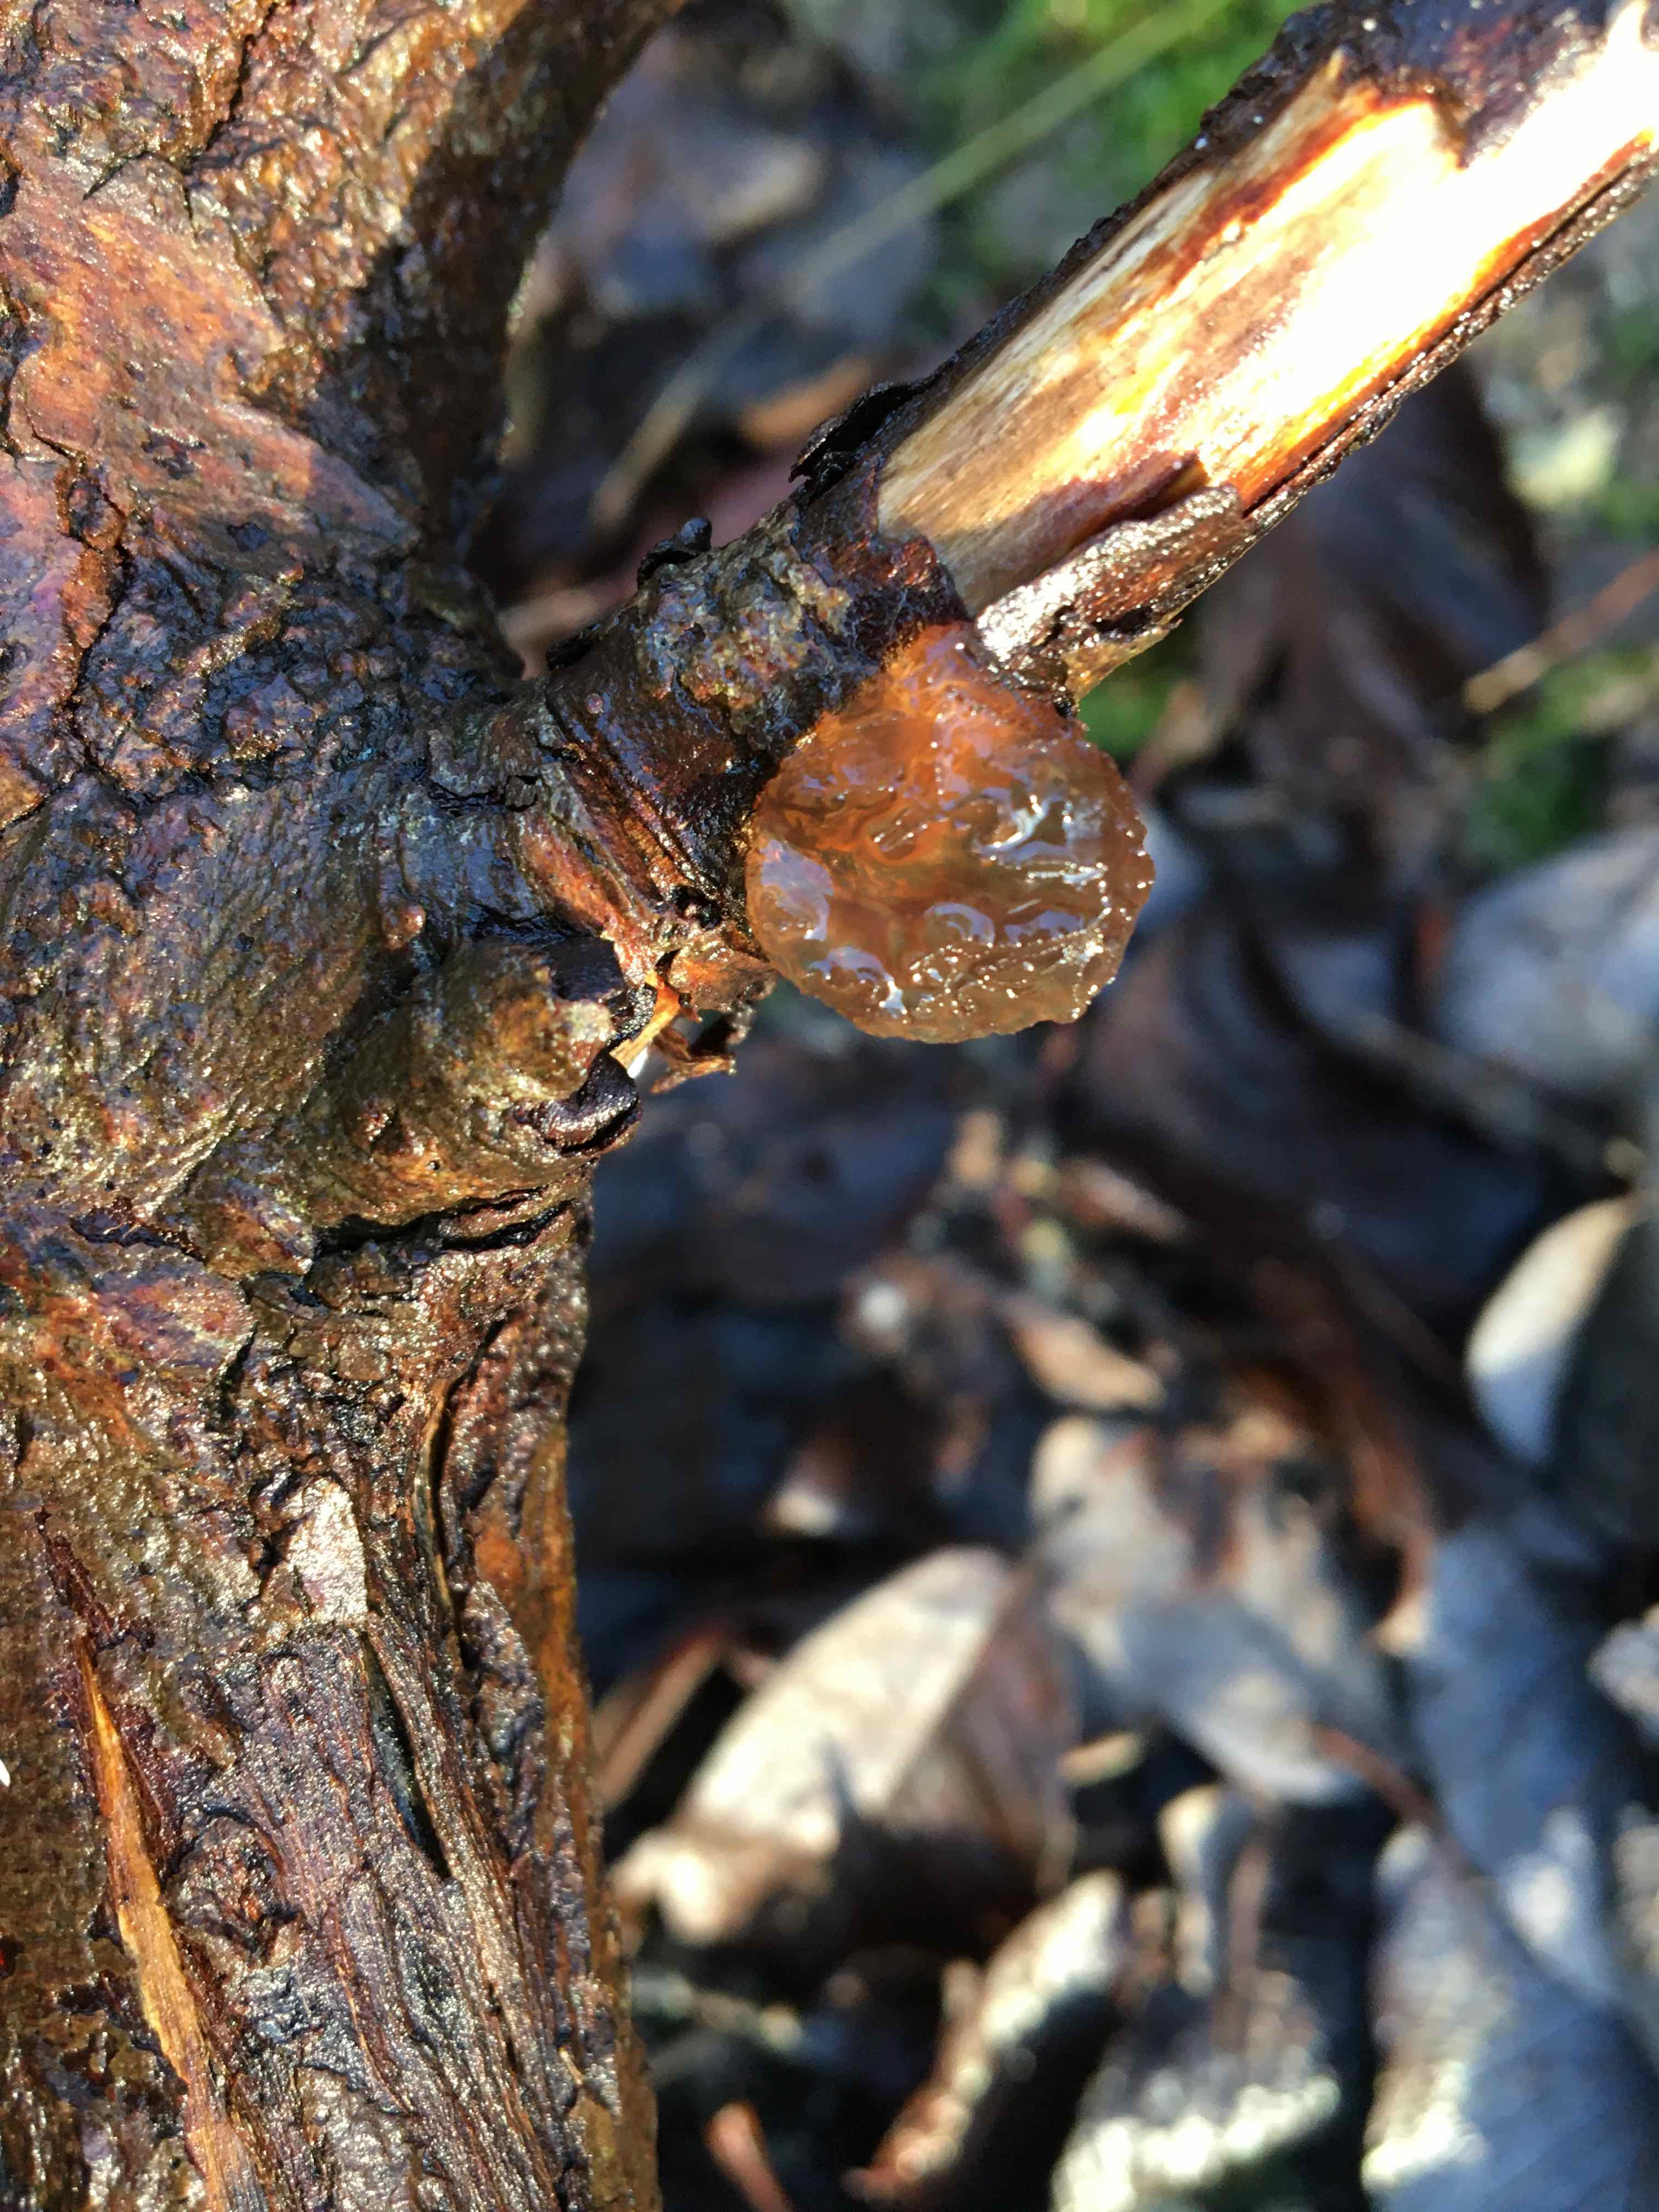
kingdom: Fungi
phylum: Basidiomycota
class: Agaricomycetes
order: Auriculariales
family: Auriculariaceae
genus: Exidia
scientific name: Exidia recisa
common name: pile-bævretop
